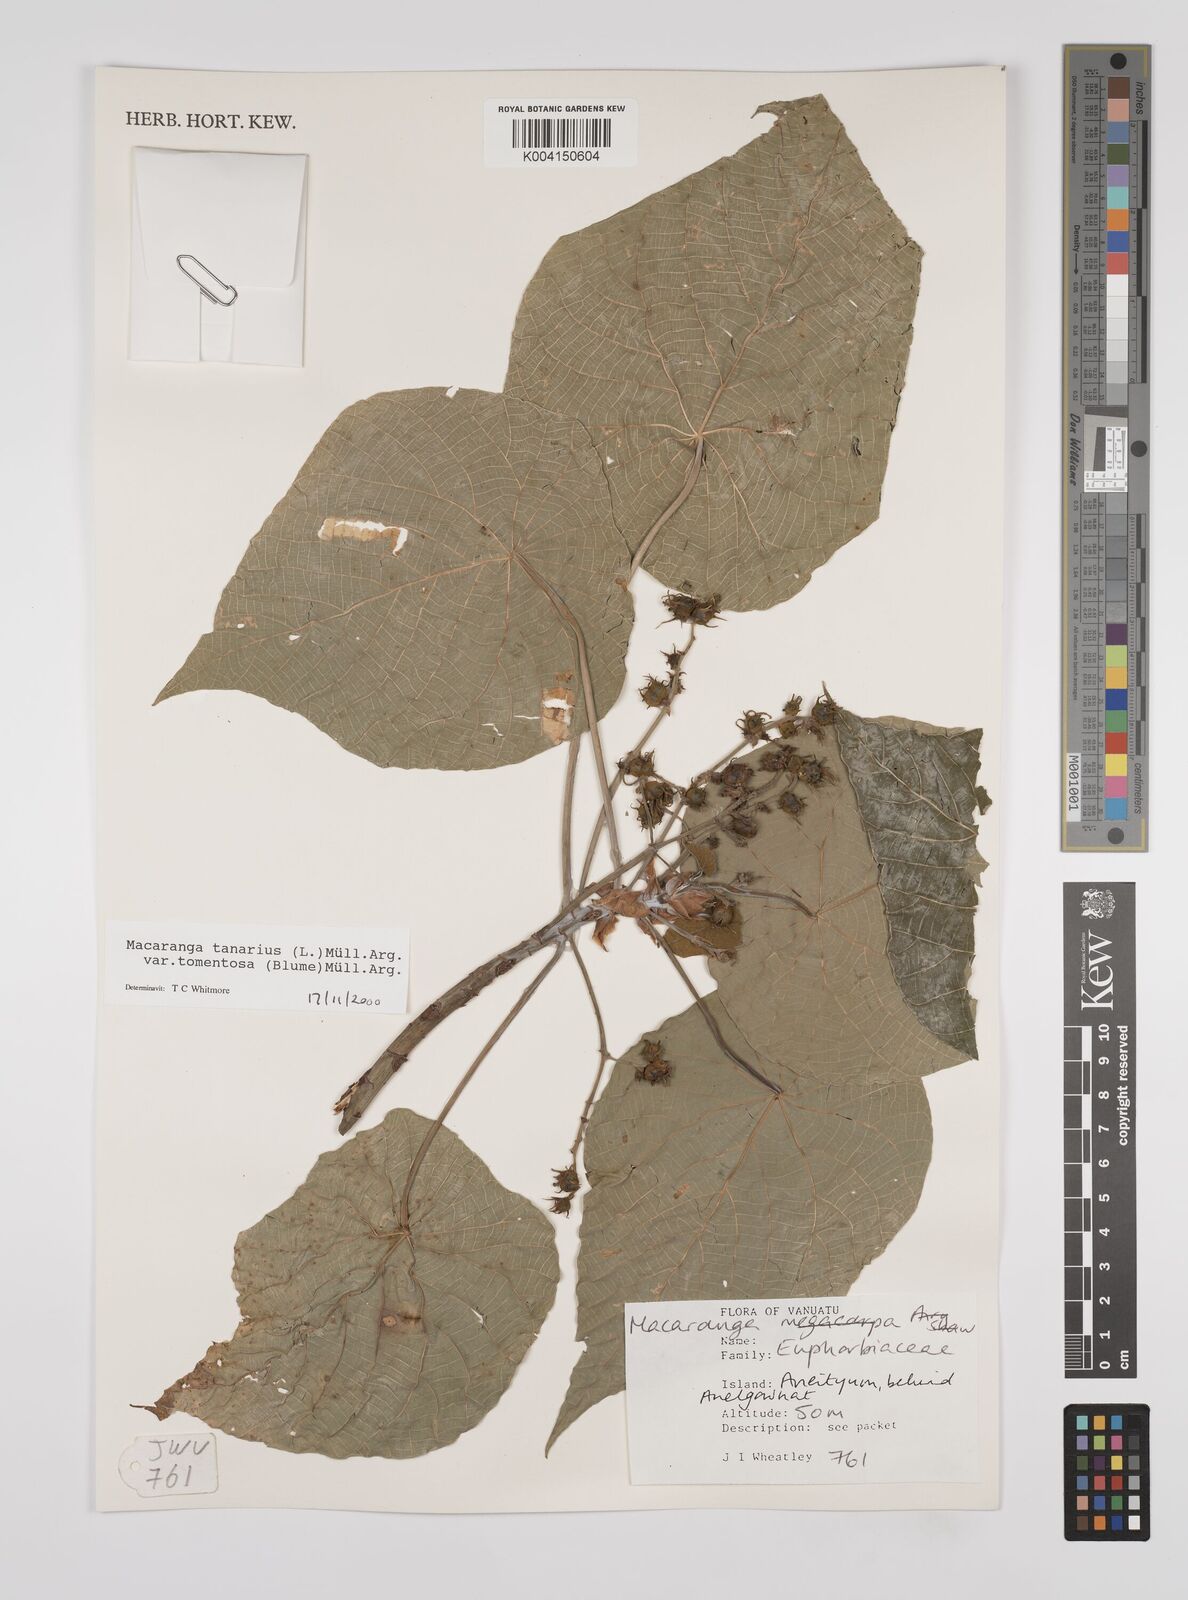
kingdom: Plantae
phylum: Tracheophyta
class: Magnoliopsida
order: Malpighiales
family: Euphorbiaceae
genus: Macaranga
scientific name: Macaranga tanarius
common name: Parasol leaf tree
